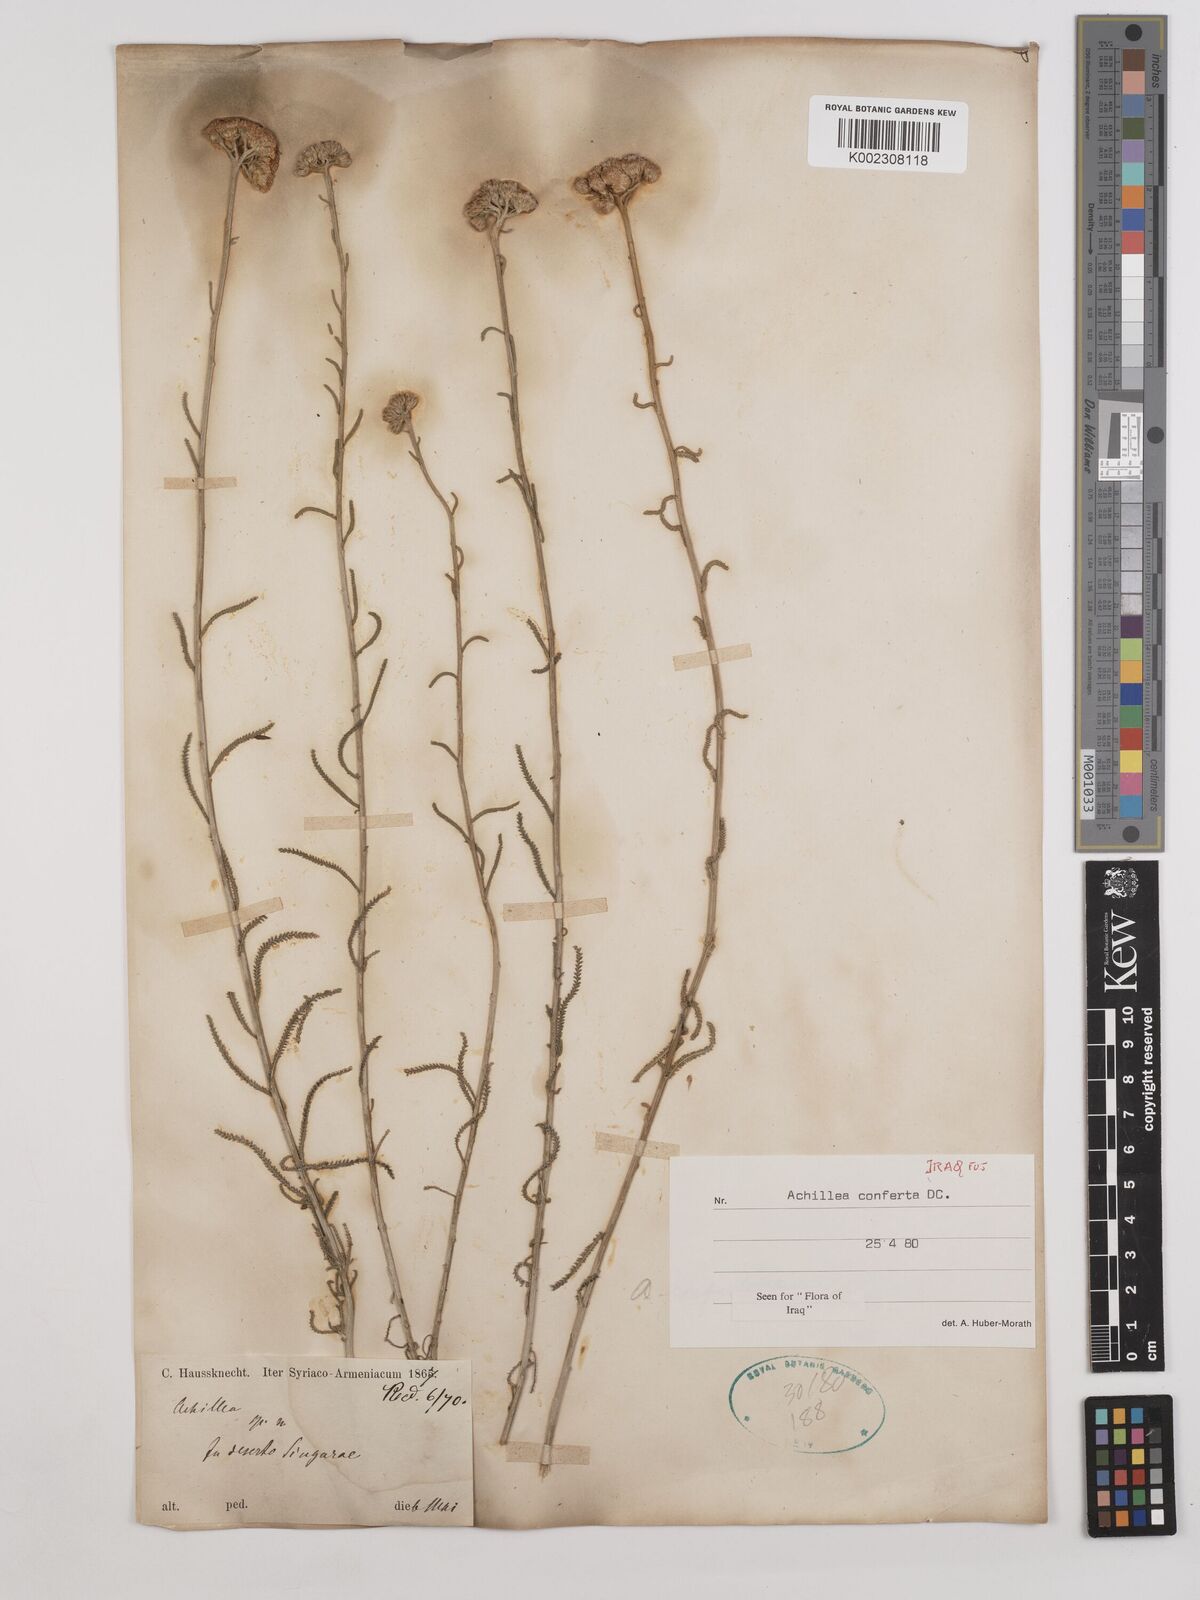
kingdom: Plantae
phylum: Tracheophyta
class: Magnoliopsida
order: Asterales
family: Asteraceae
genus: Achillea
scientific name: Achillea conferta
